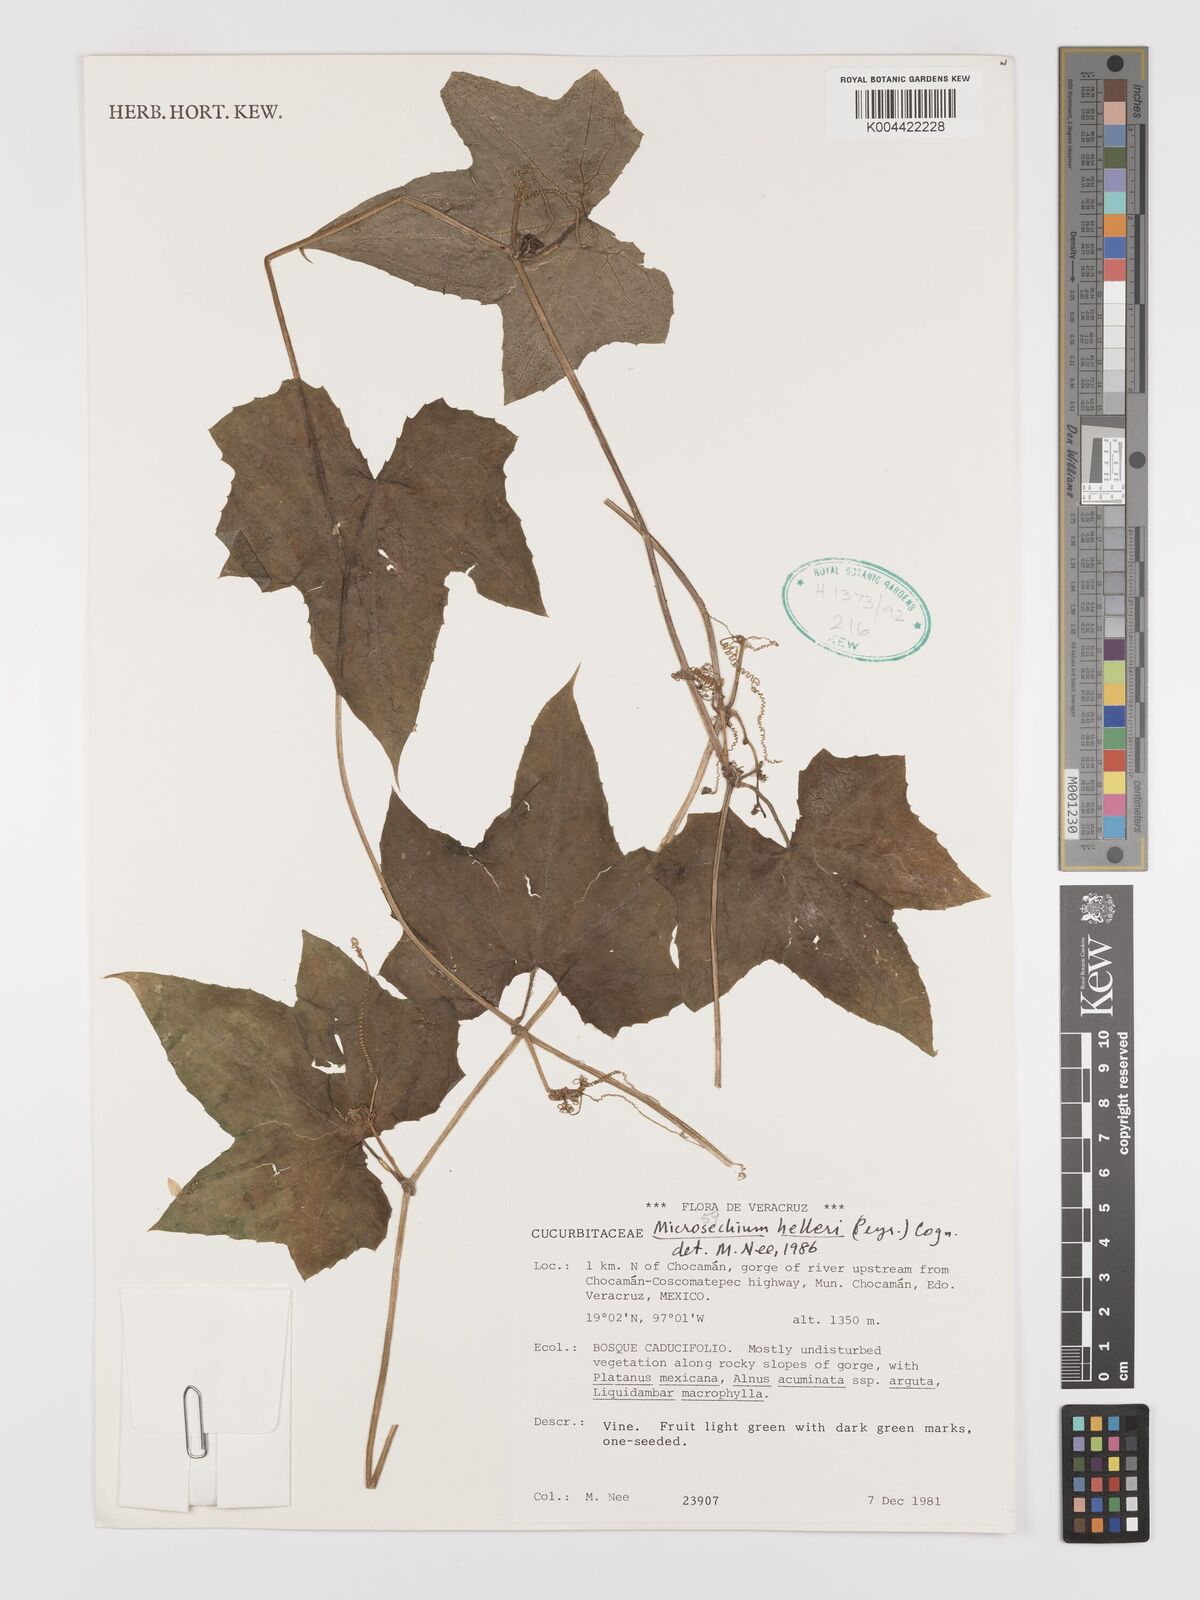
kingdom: Plantae
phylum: Tracheophyta
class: Magnoliopsida
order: Cucurbitales
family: Cucurbitaceae
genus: Microsechium
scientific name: Microsechium palmatum
